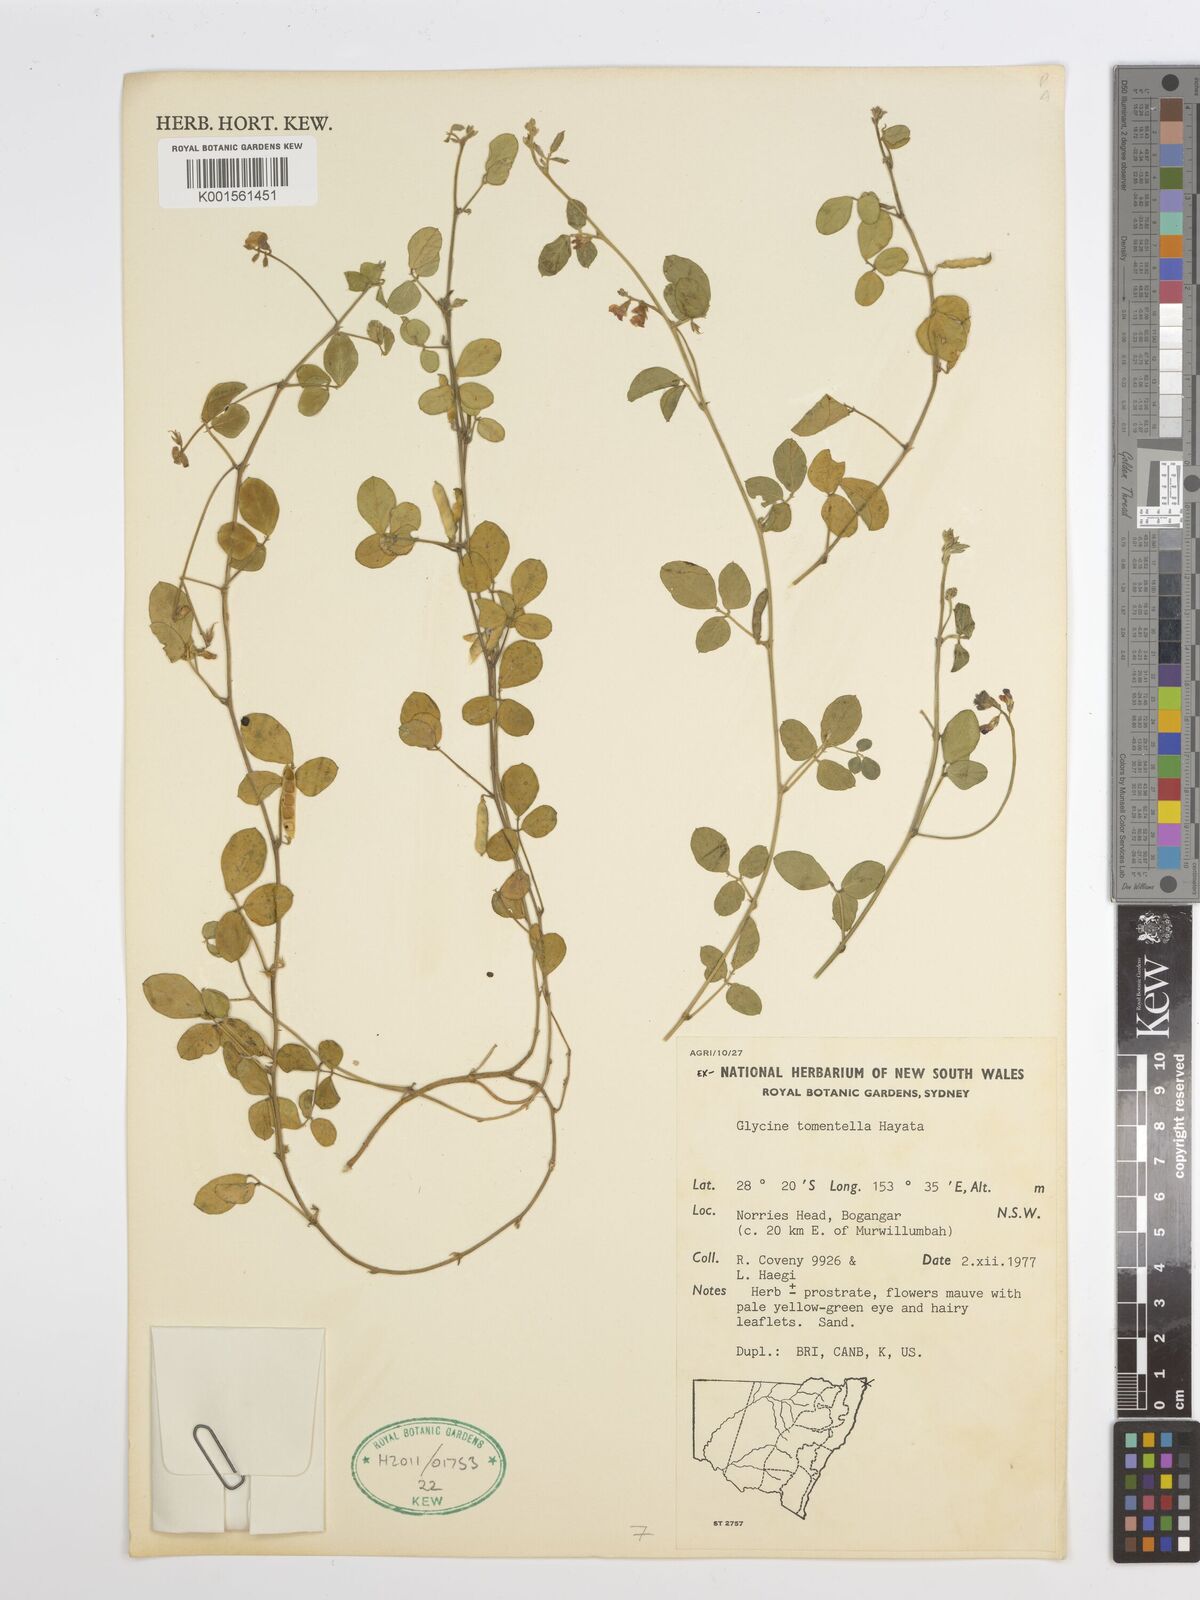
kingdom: Plantae
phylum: Tracheophyta
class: Magnoliopsida
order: Fabales
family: Fabaceae
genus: Glycine
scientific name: Glycine tomentella
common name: Hairy glycine
